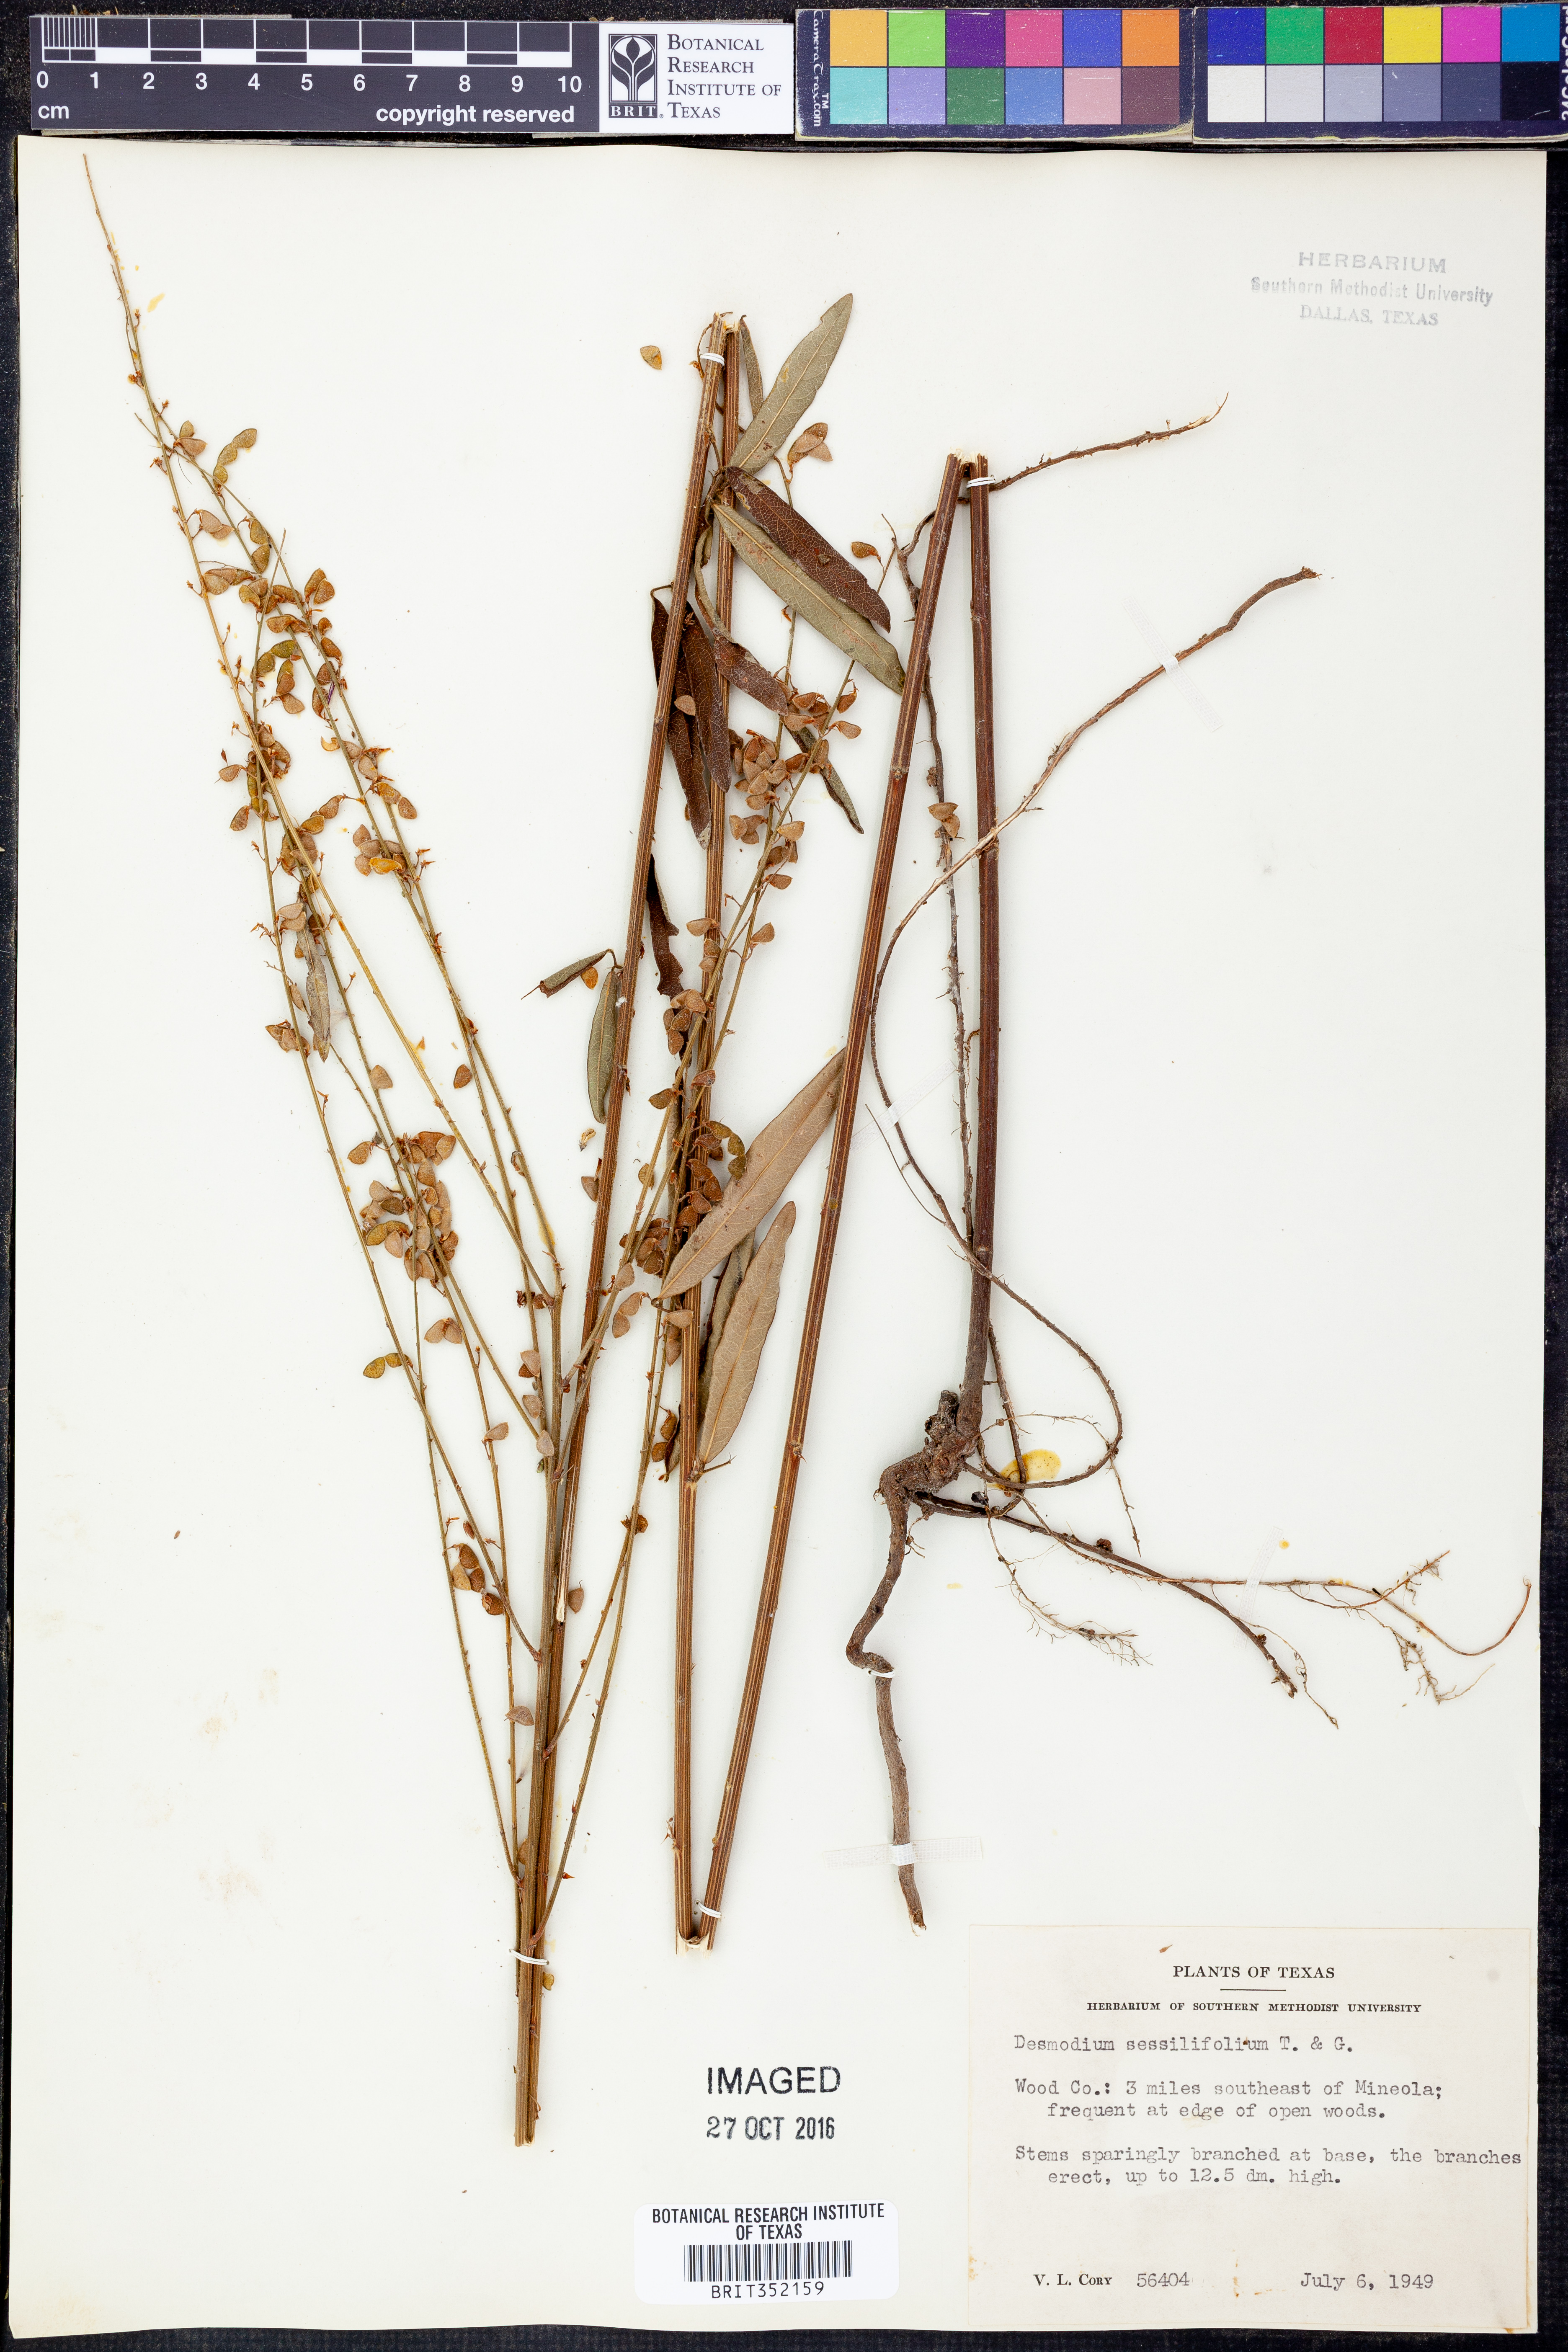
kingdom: Plantae
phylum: Tracheophyta
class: Magnoliopsida
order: Fabales
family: Fabaceae
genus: Desmodium
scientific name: Desmodium sessilifolium
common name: Sessile tick-clover
